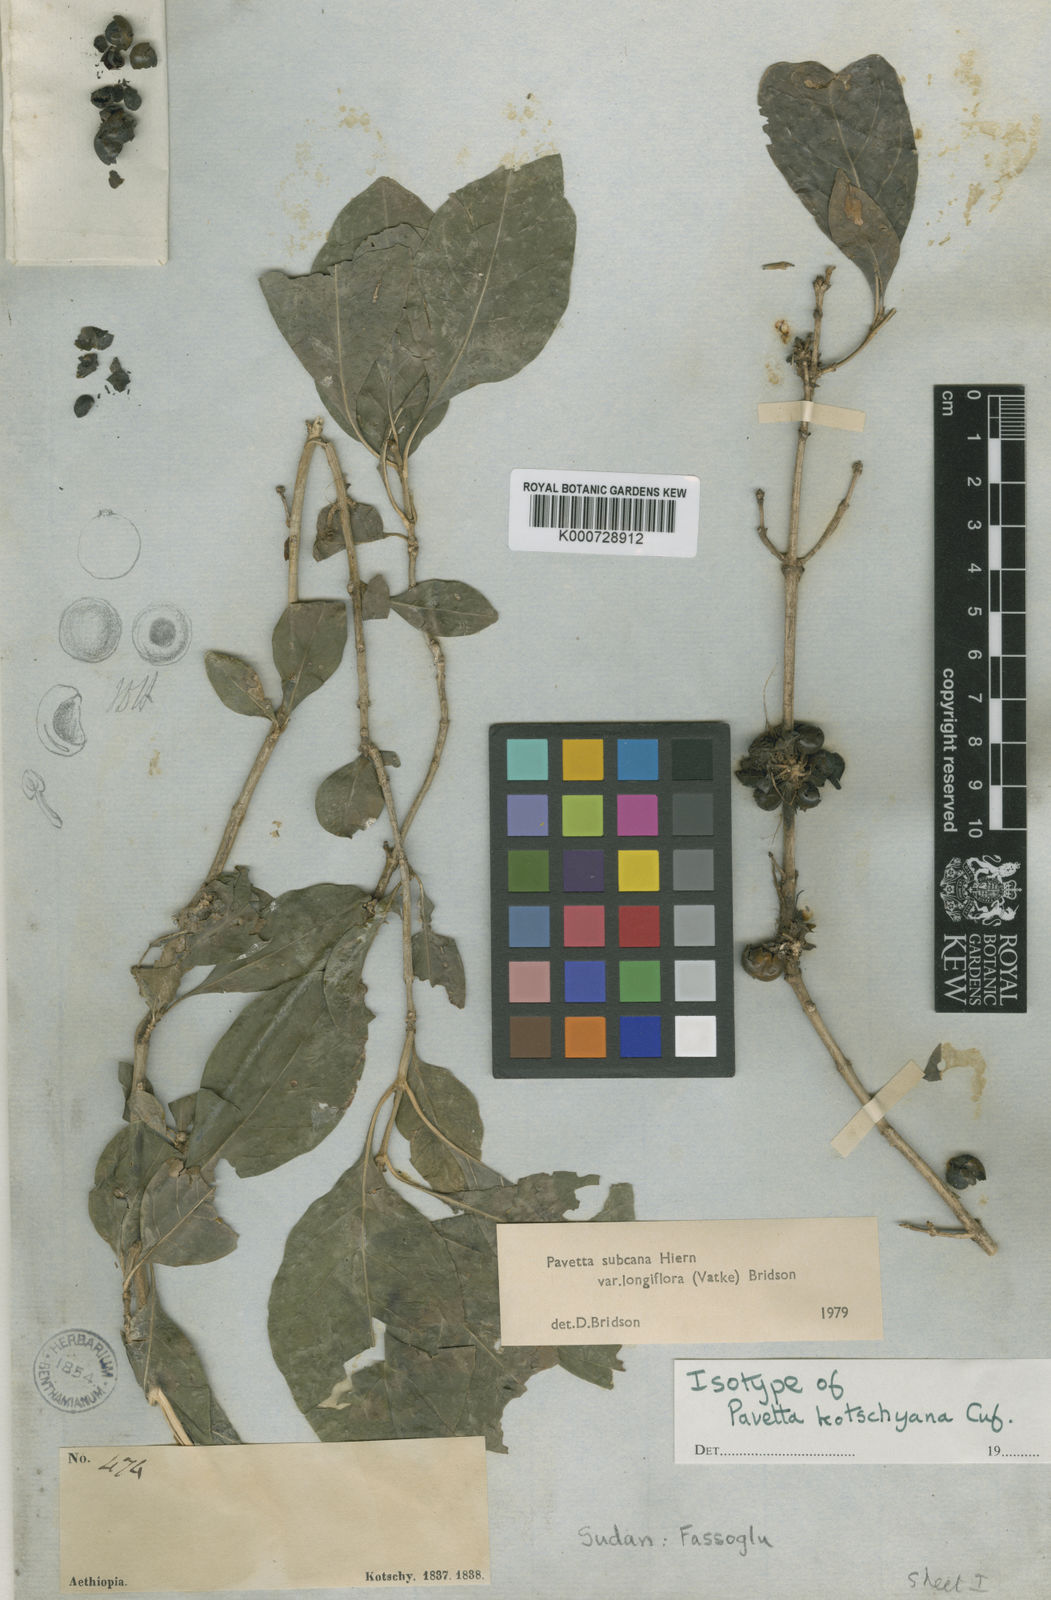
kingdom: Plantae
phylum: Tracheophyta
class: Magnoliopsida
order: Gentianales
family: Rubiaceae
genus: Pavetta
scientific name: Pavetta subcana
